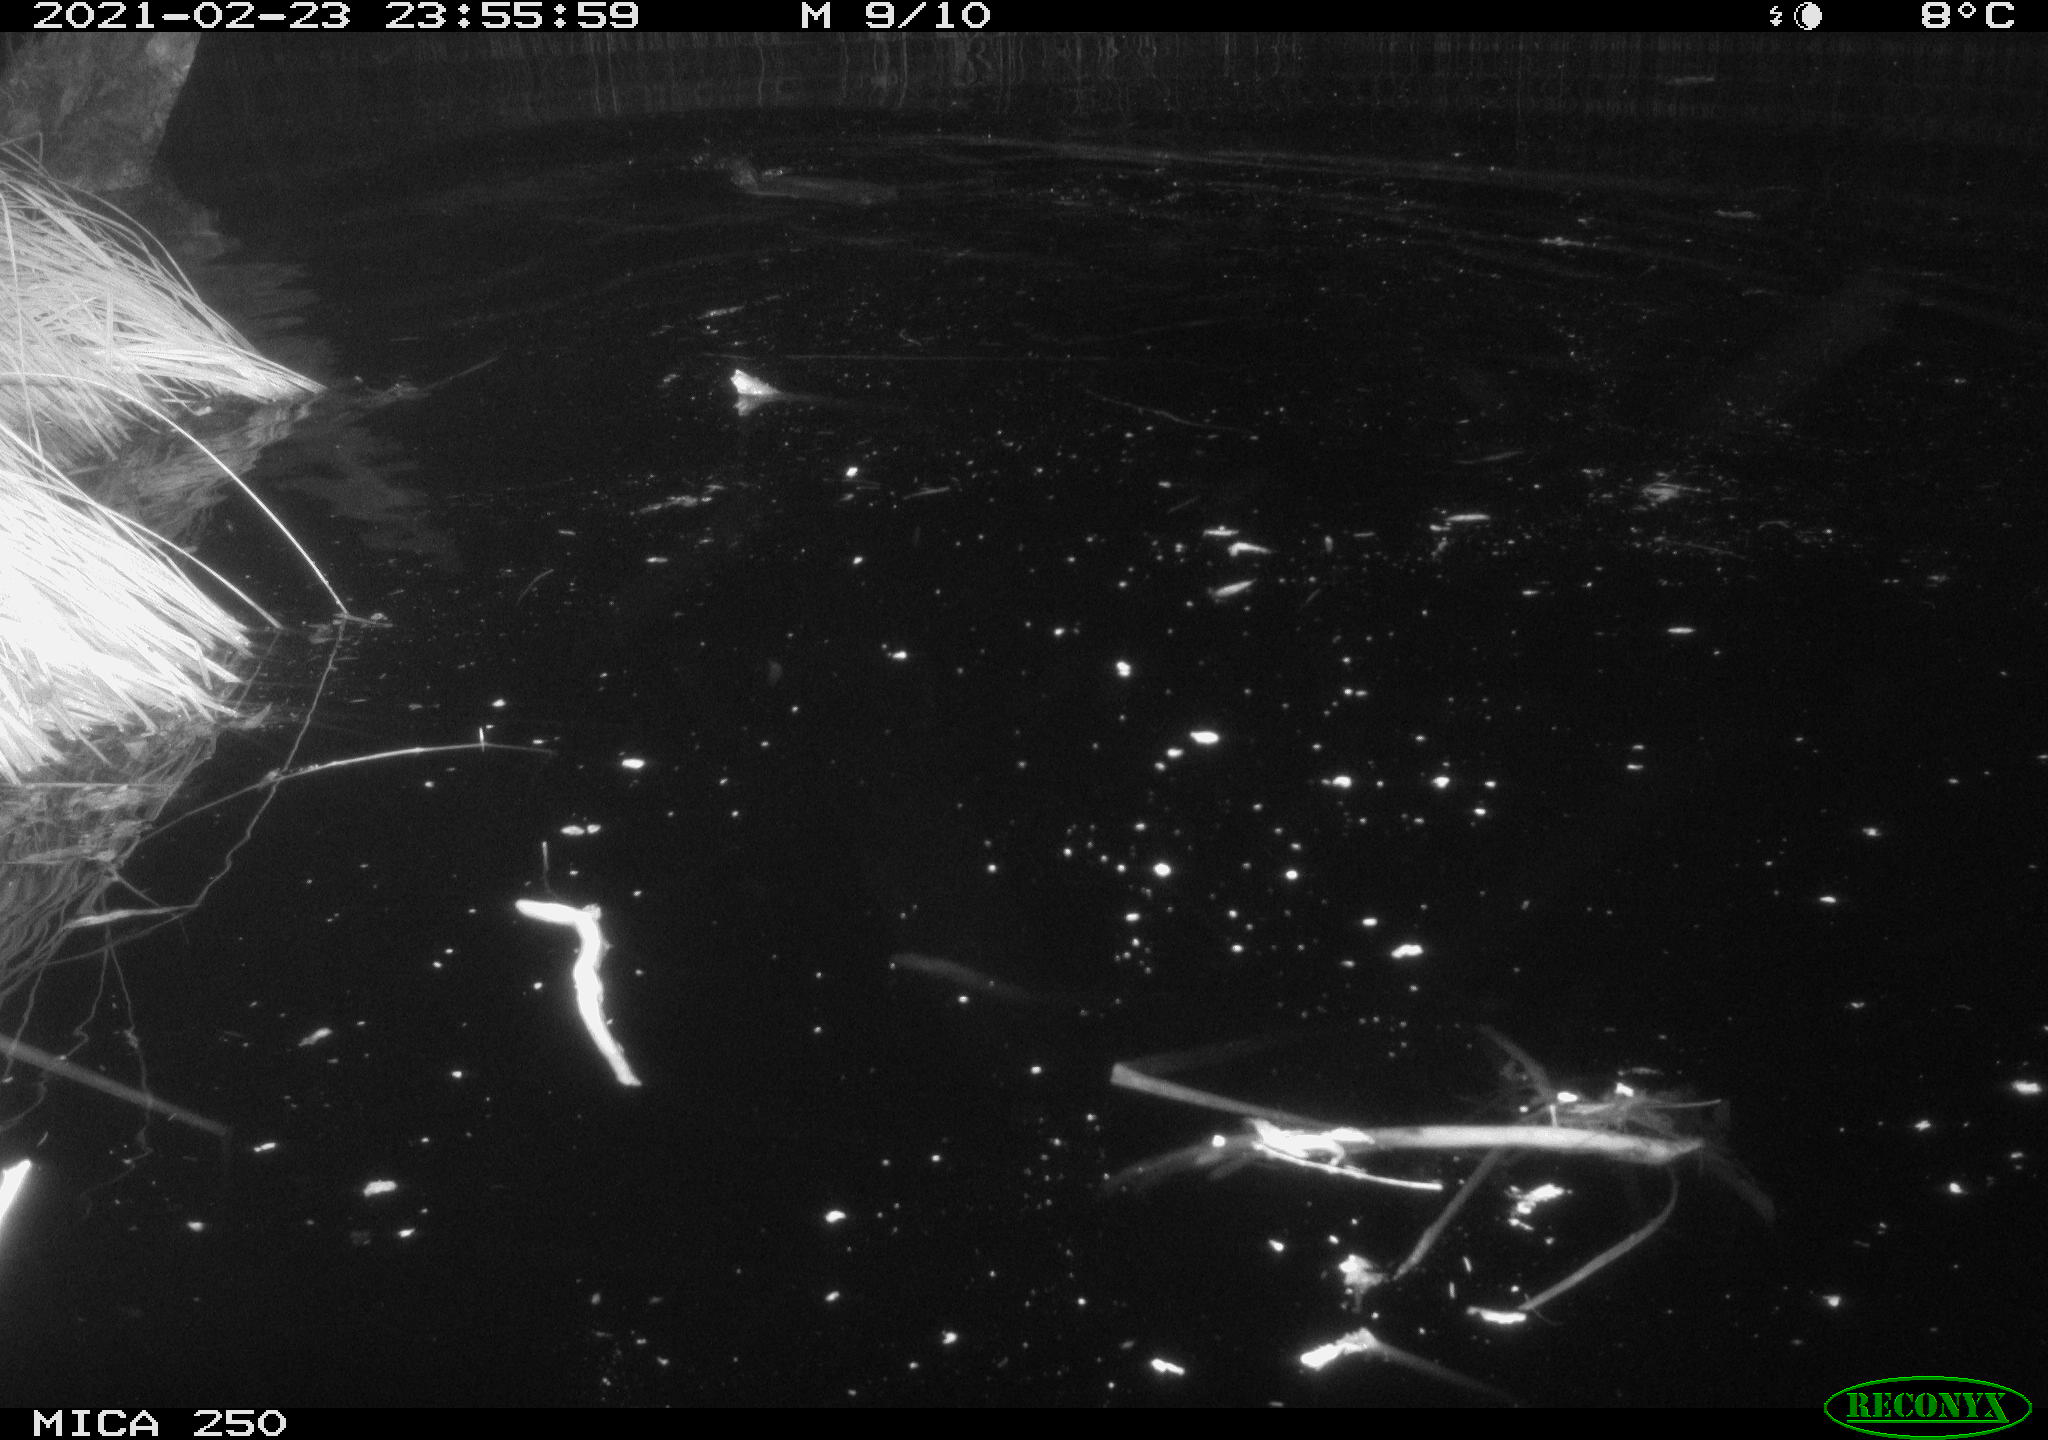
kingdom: Animalia
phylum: Chordata
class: Mammalia
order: Rodentia
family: Castoridae
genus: Castor
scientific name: Castor fiber
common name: Eurasian beaver
